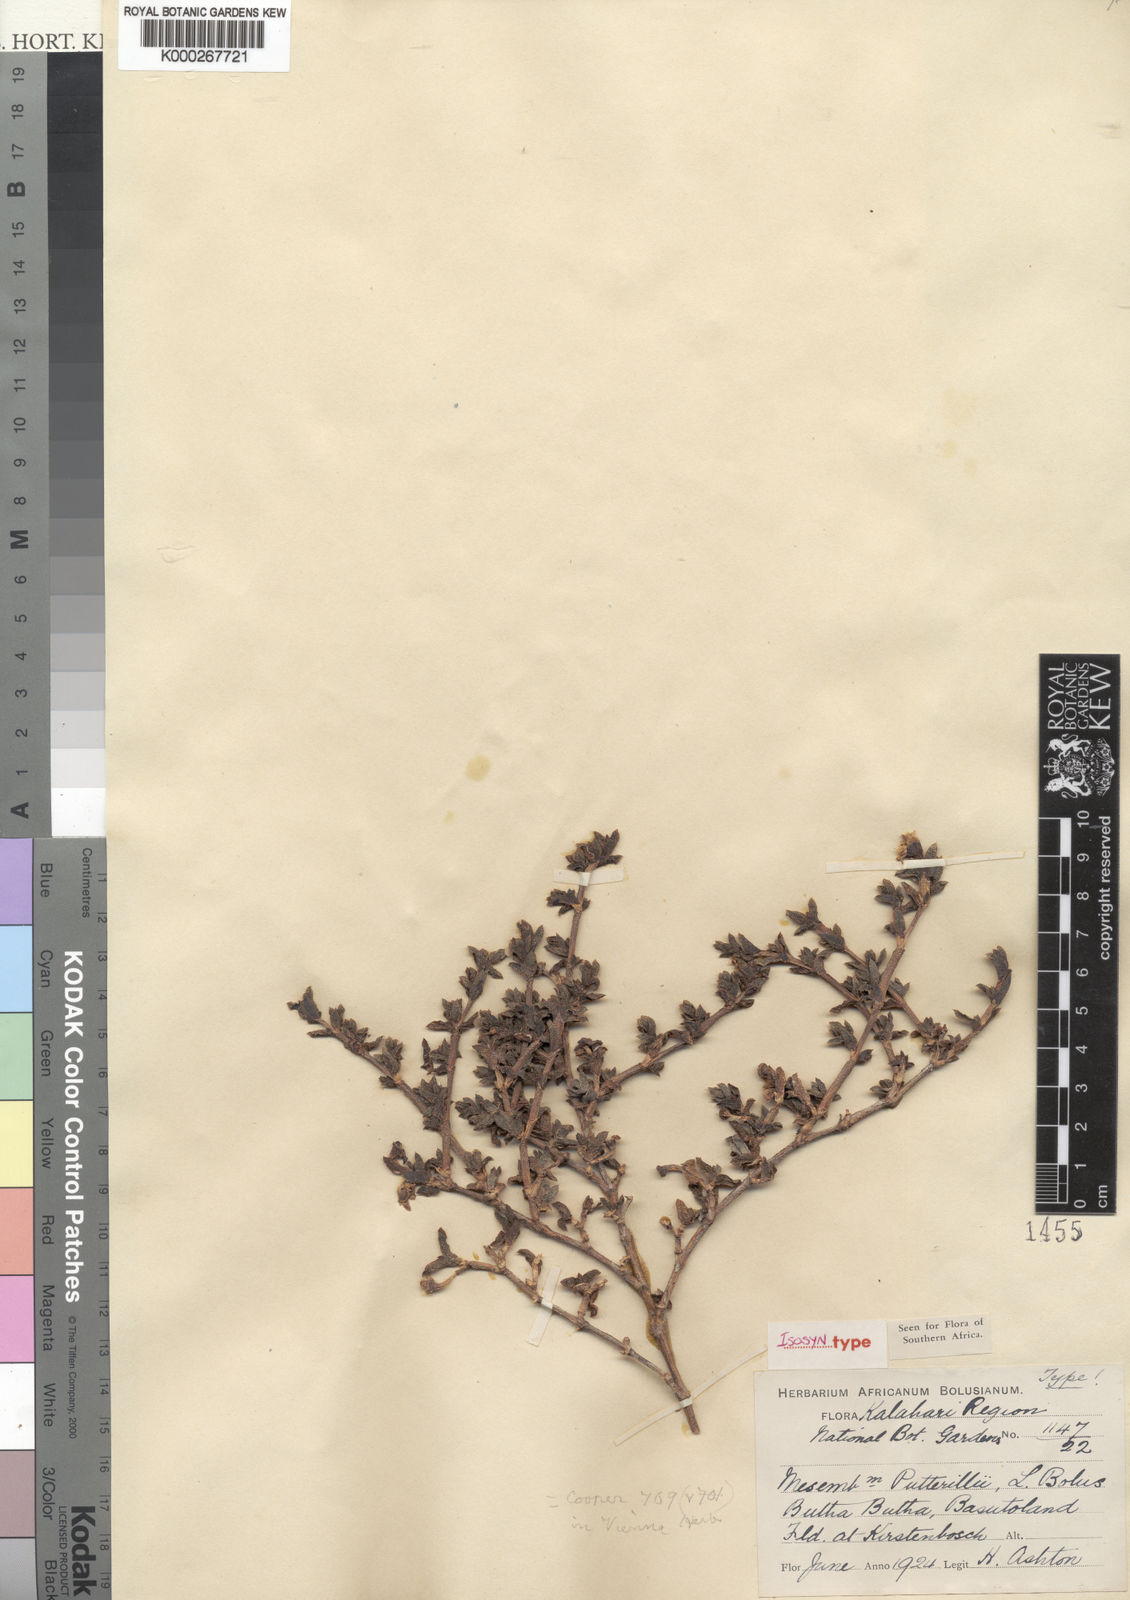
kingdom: Plantae
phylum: Tracheophyta
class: Magnoliopsida
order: Caryophyllales
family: Aizoaceae
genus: Ruschia
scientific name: Ruschia putterillii
